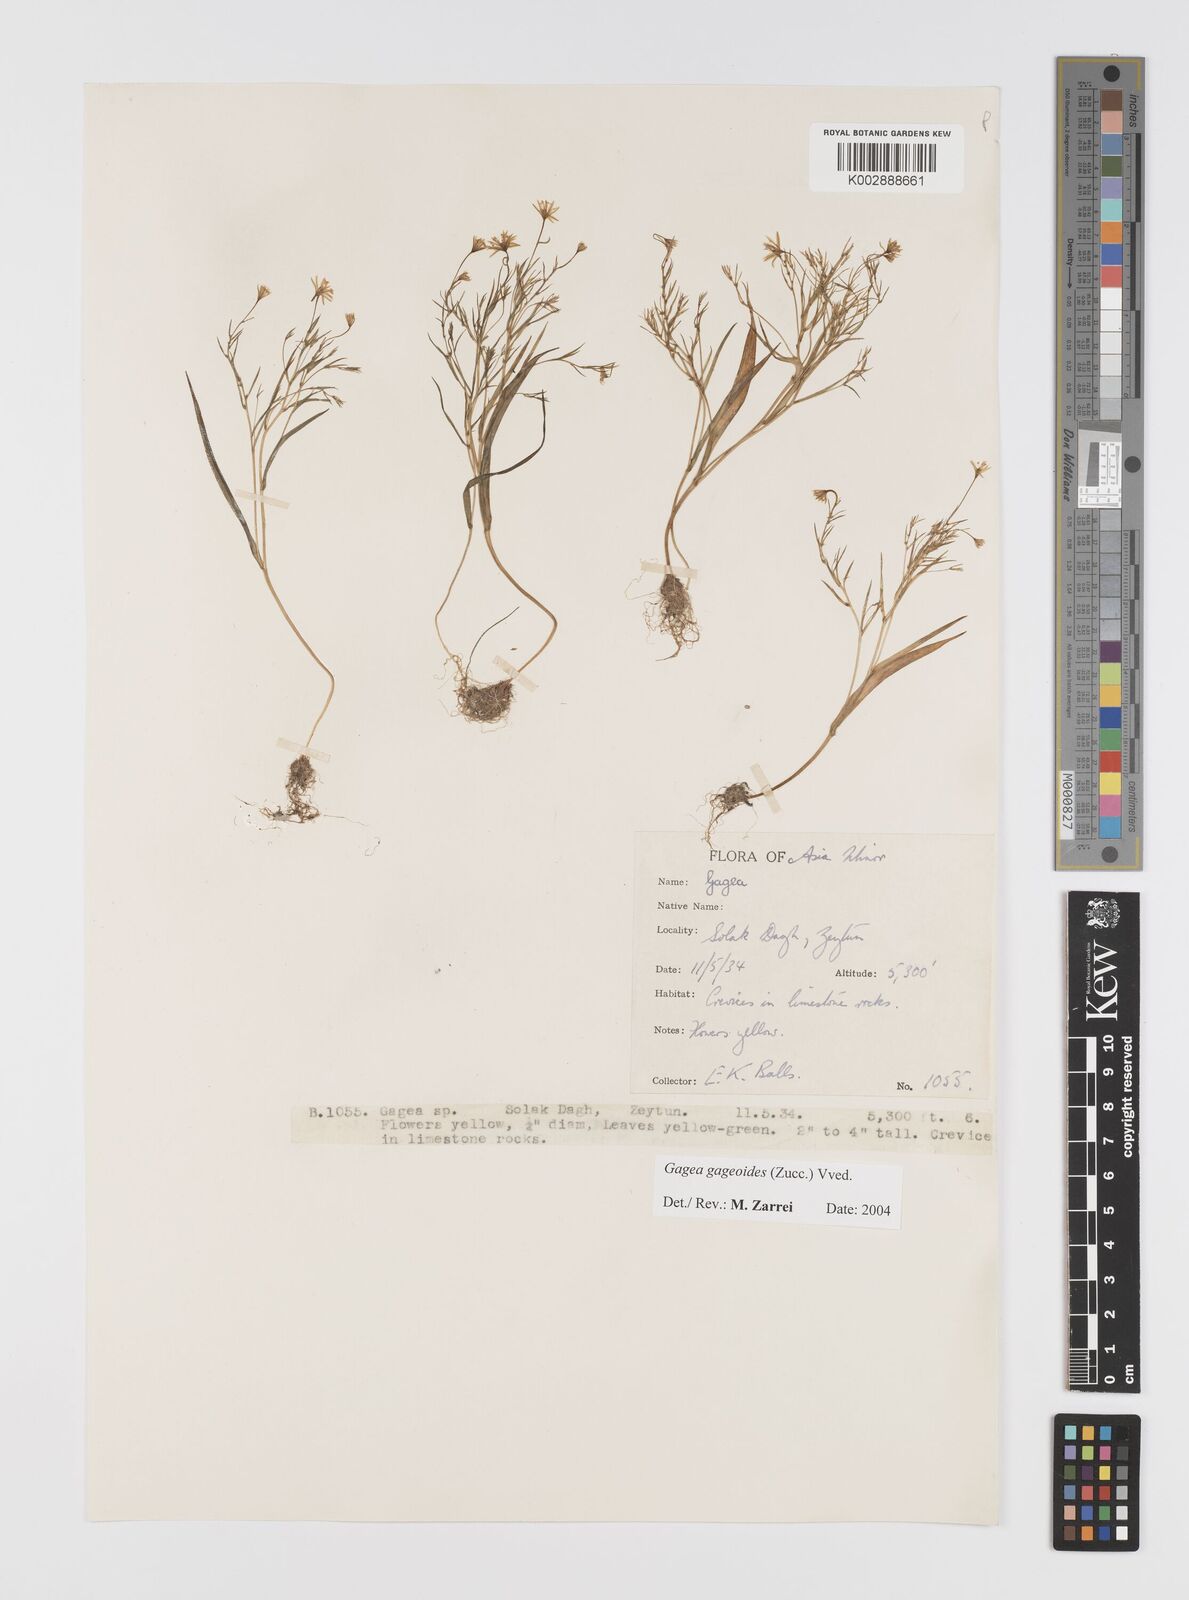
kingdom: Plantae
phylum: Tracheophyta
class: Liliopsida
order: Liliales
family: Liliaceae
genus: Gagea
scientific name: Gagea gageoides
